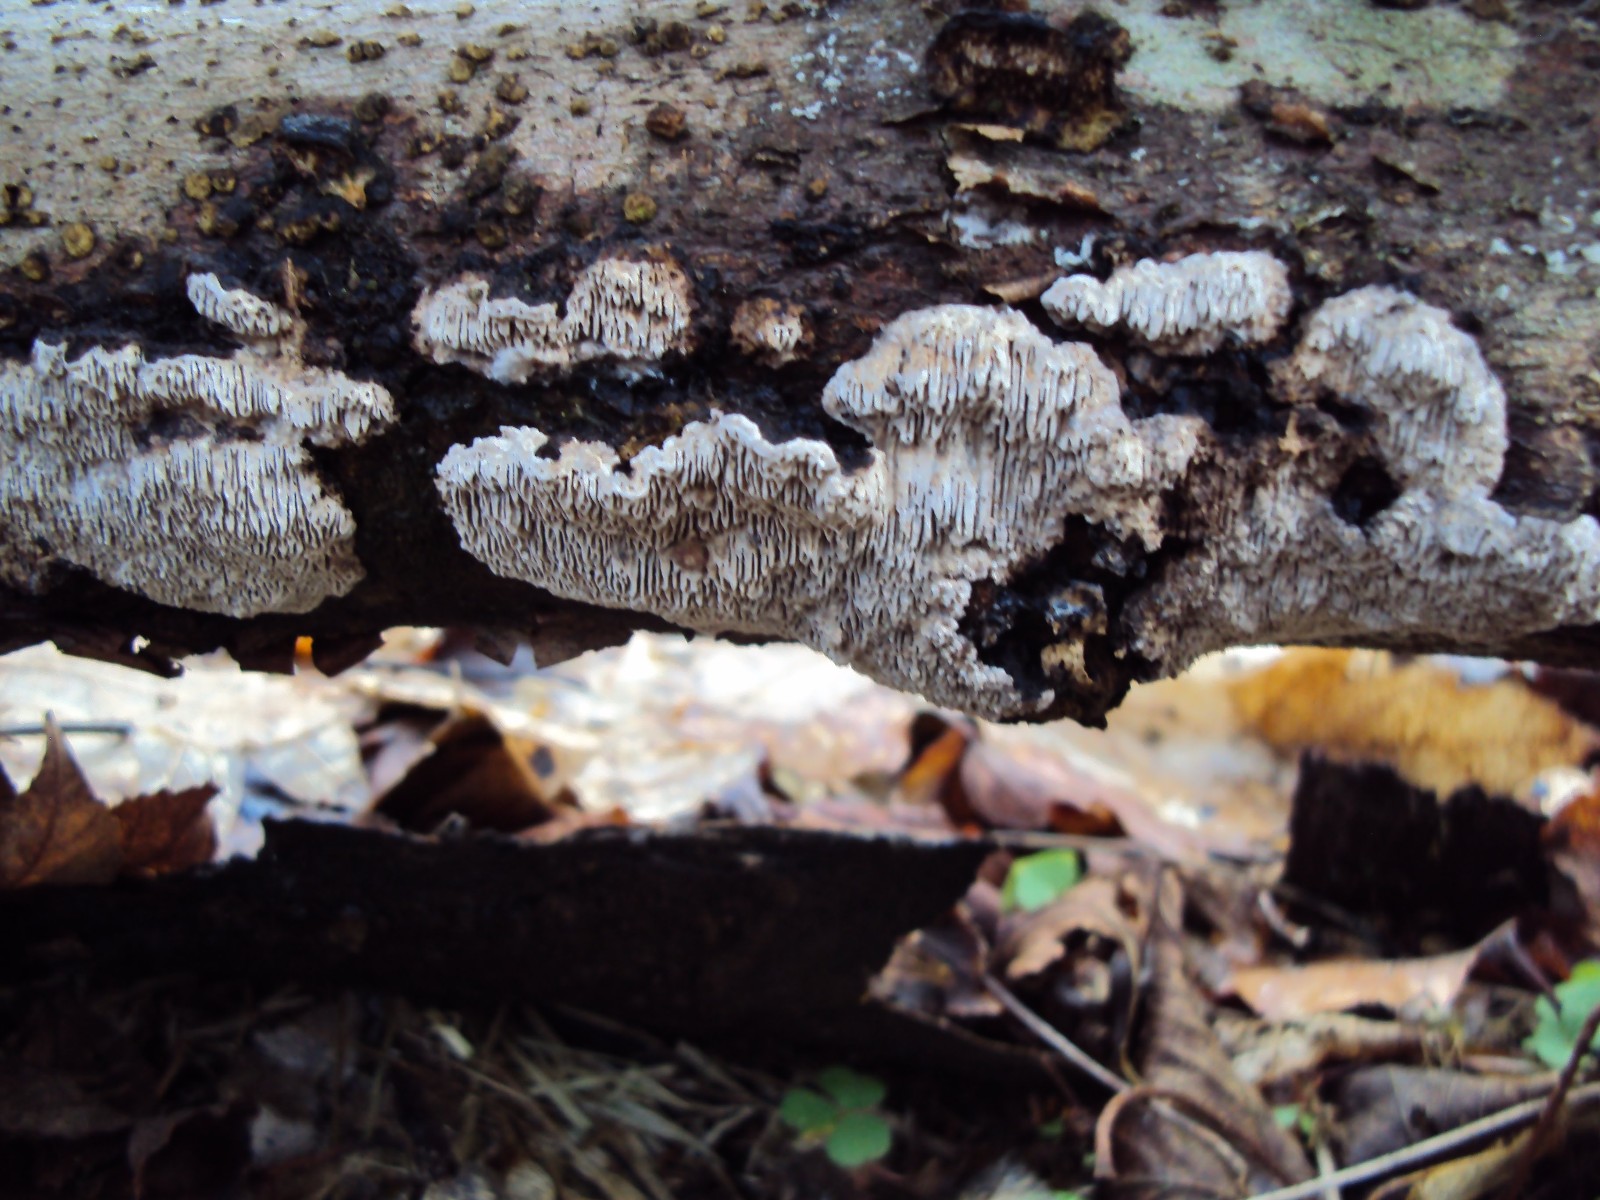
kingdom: Fungi
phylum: Basidiomycota
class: Agaricomycetes
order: Polyporales
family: Polyporaceae
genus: Podofomes
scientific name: Podofomes mollis
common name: blød begporesvamp
